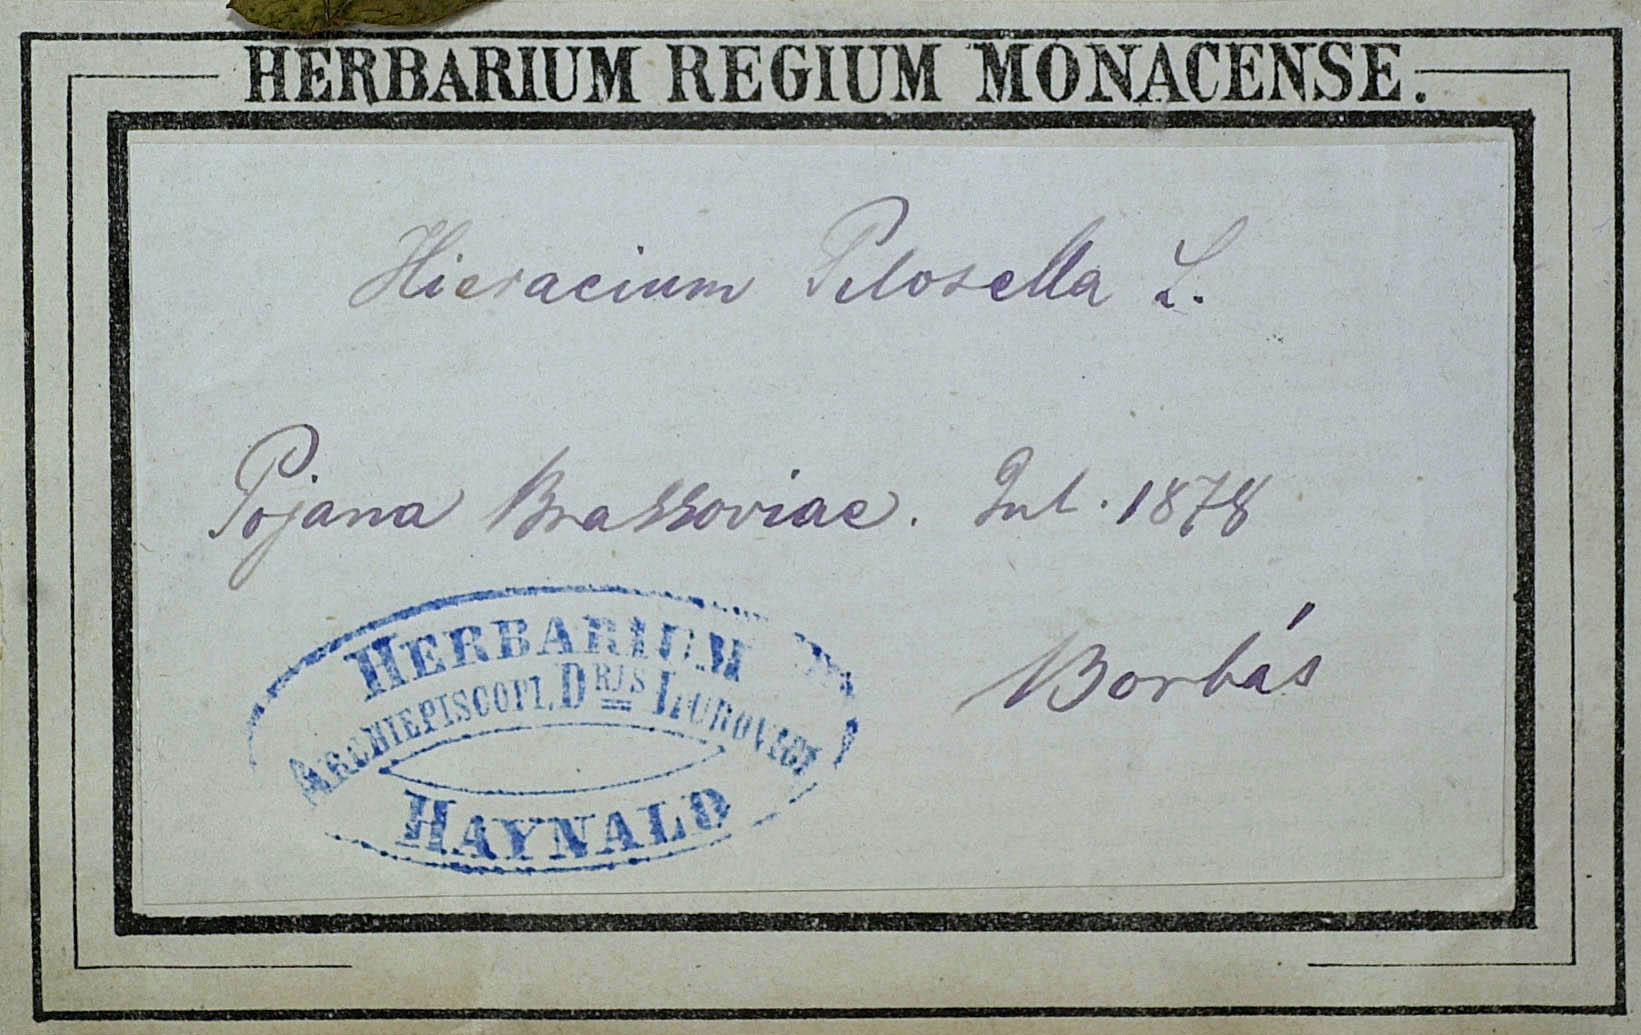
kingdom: Plantae
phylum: Tracheophyta
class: Magnoliopsida
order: Asterales
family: Asteraceae
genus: Pilosella
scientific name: Pilosella officinarum
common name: Mouse-ear hawkweed
